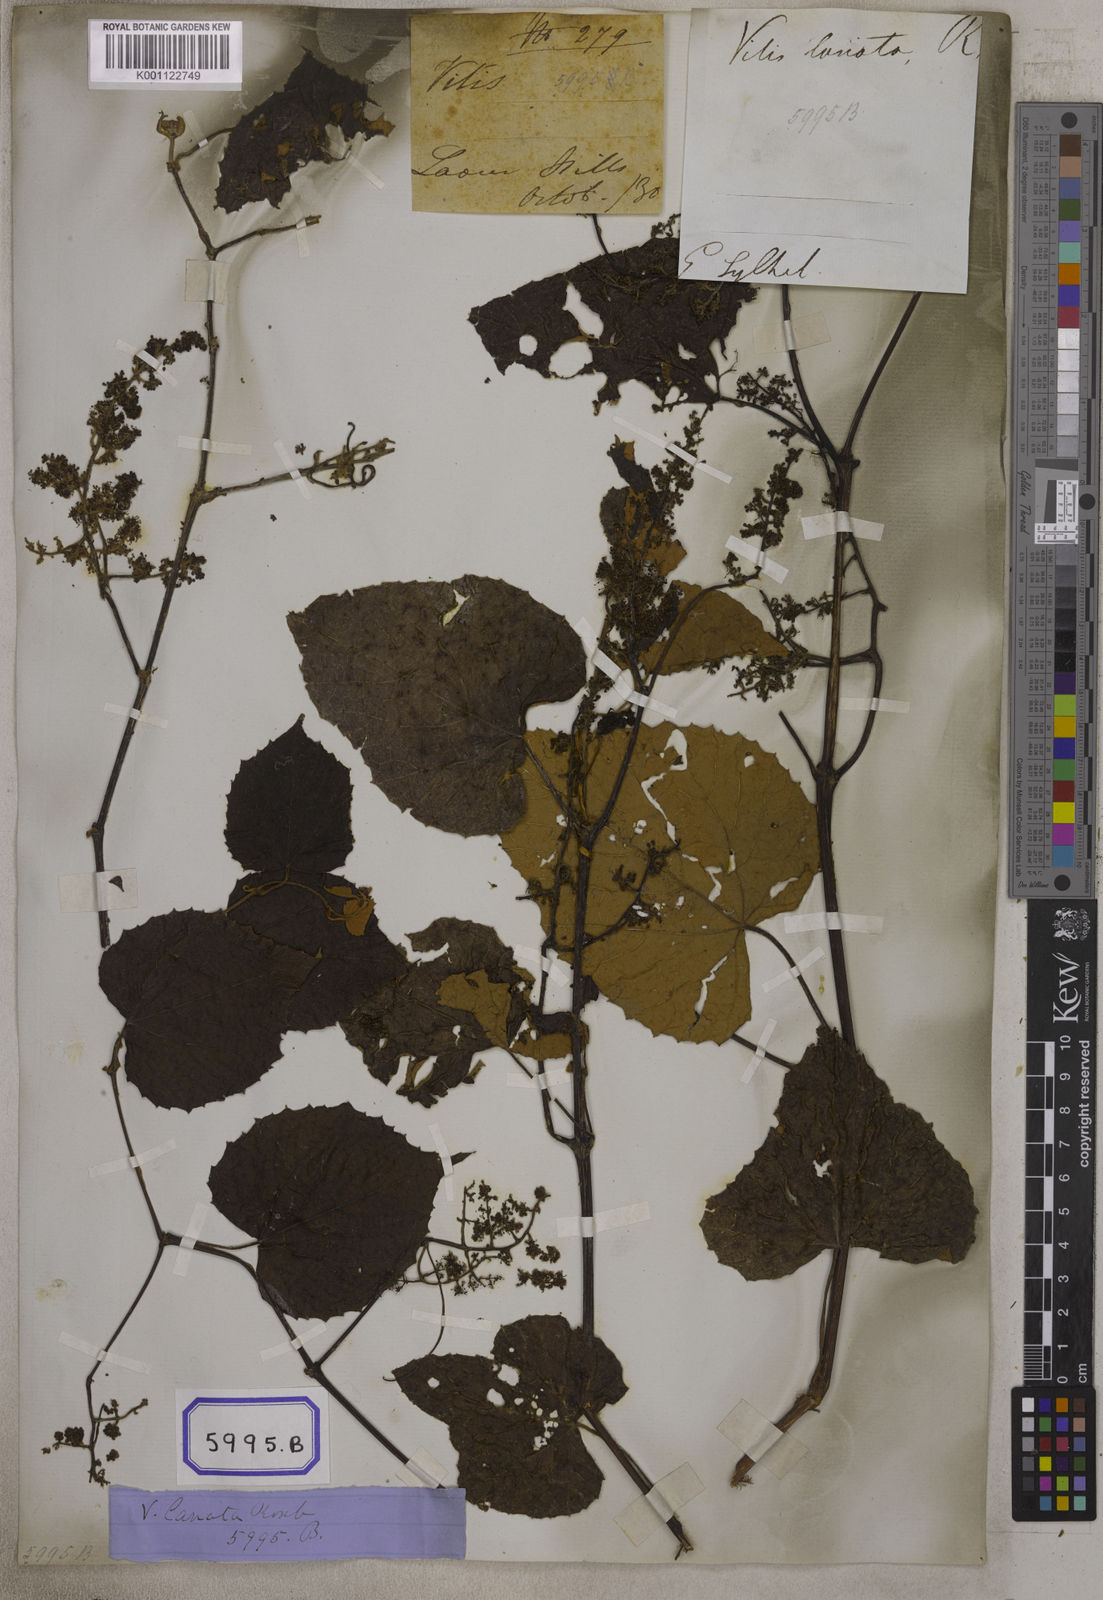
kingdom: Plantae
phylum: Tracheophyta
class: Magnoliopsida
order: Vitales
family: Vitaceae
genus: Vitis
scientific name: Vitis
